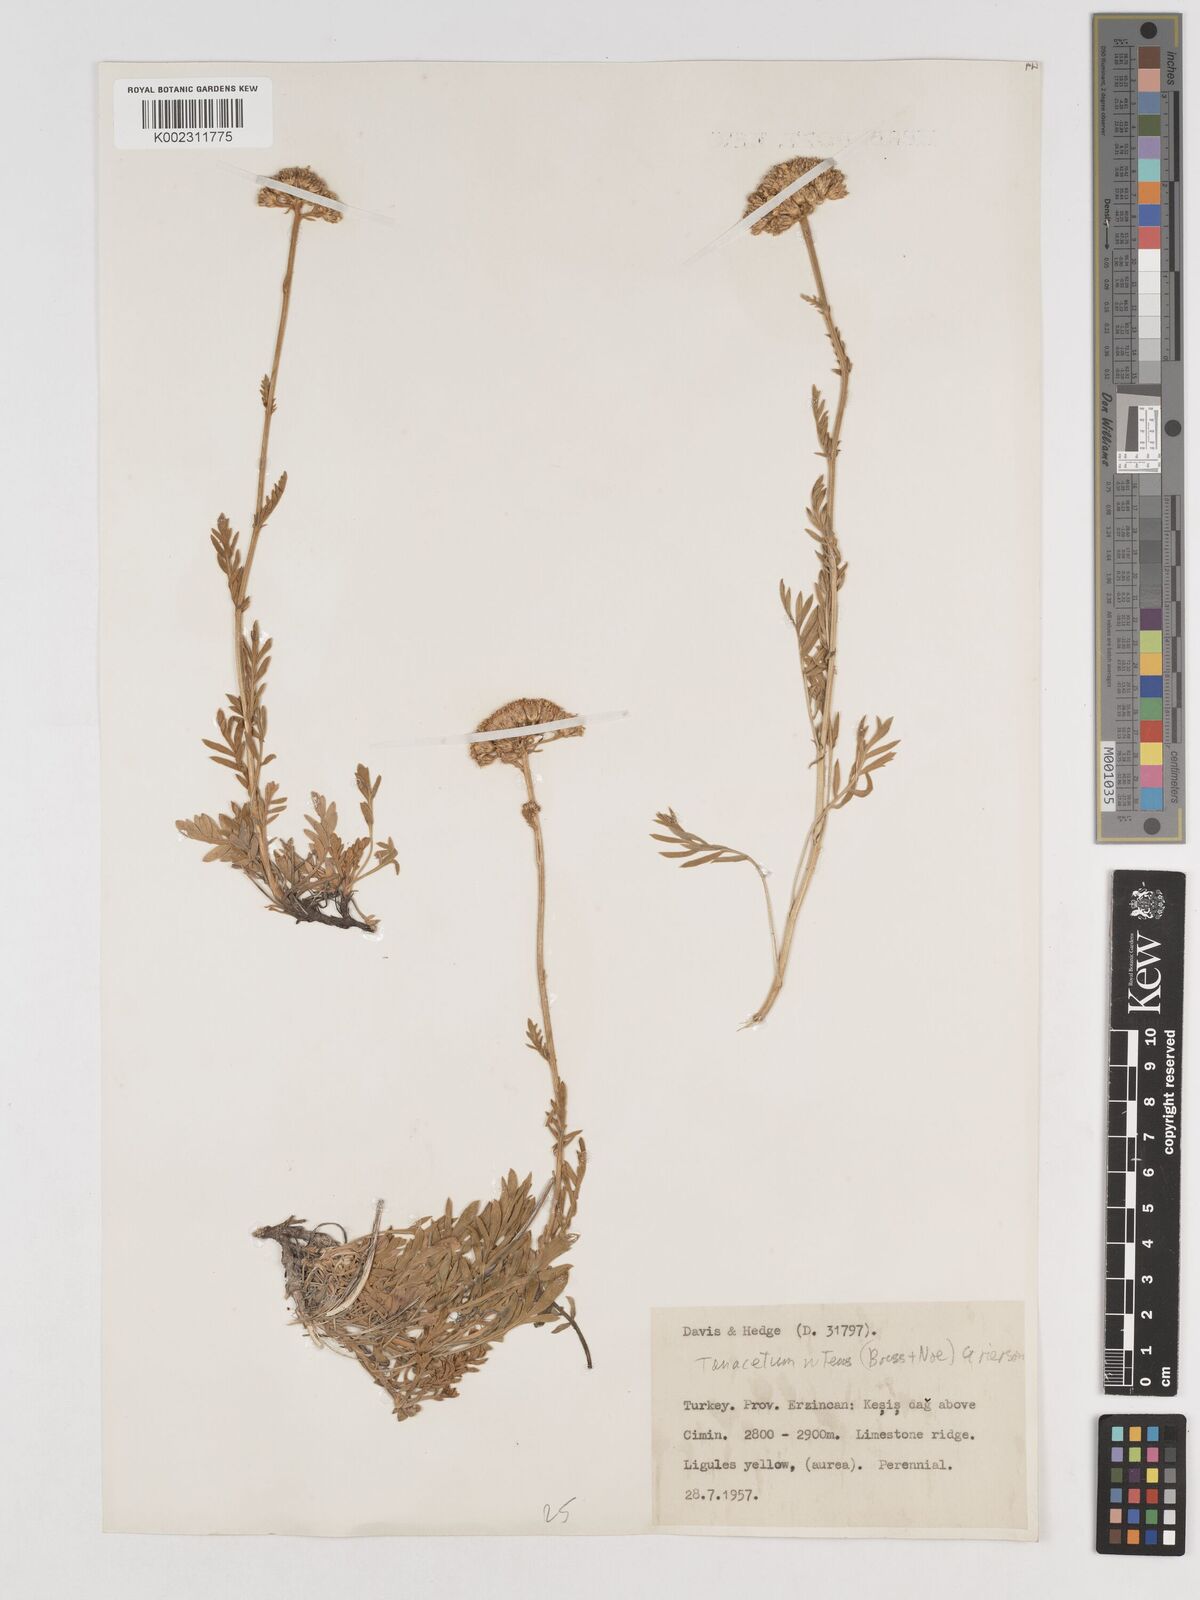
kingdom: Plantae
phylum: Tracheophyta
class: Magnoliopsida
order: Asterales
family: Asteraceae
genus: Tanacetum
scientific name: Tanacetum nitens
